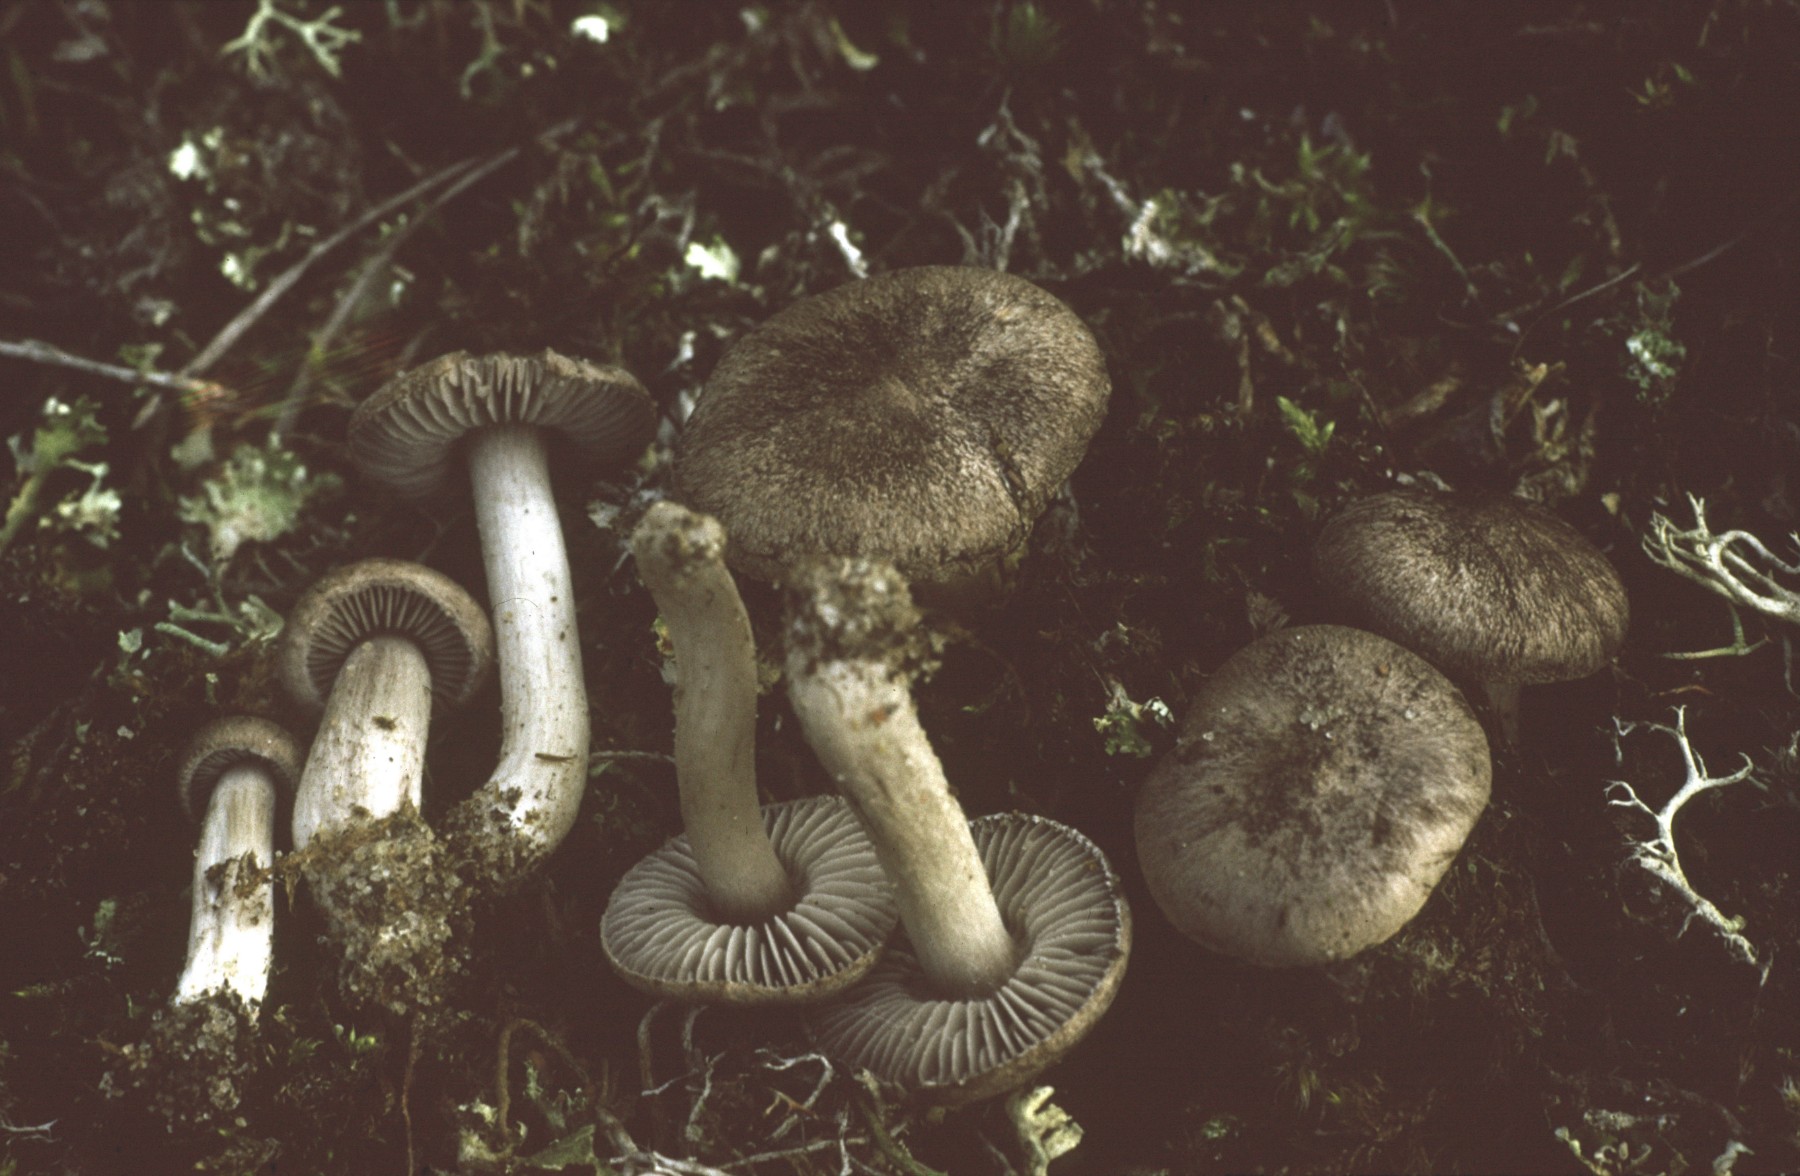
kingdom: Fungi
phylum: Basidiomycota
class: Agaricomycetes
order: Agaricales
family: Tricholomataceae
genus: Tricholoma
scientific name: Tricholoma bonii
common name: skiffergrå ridderhat
